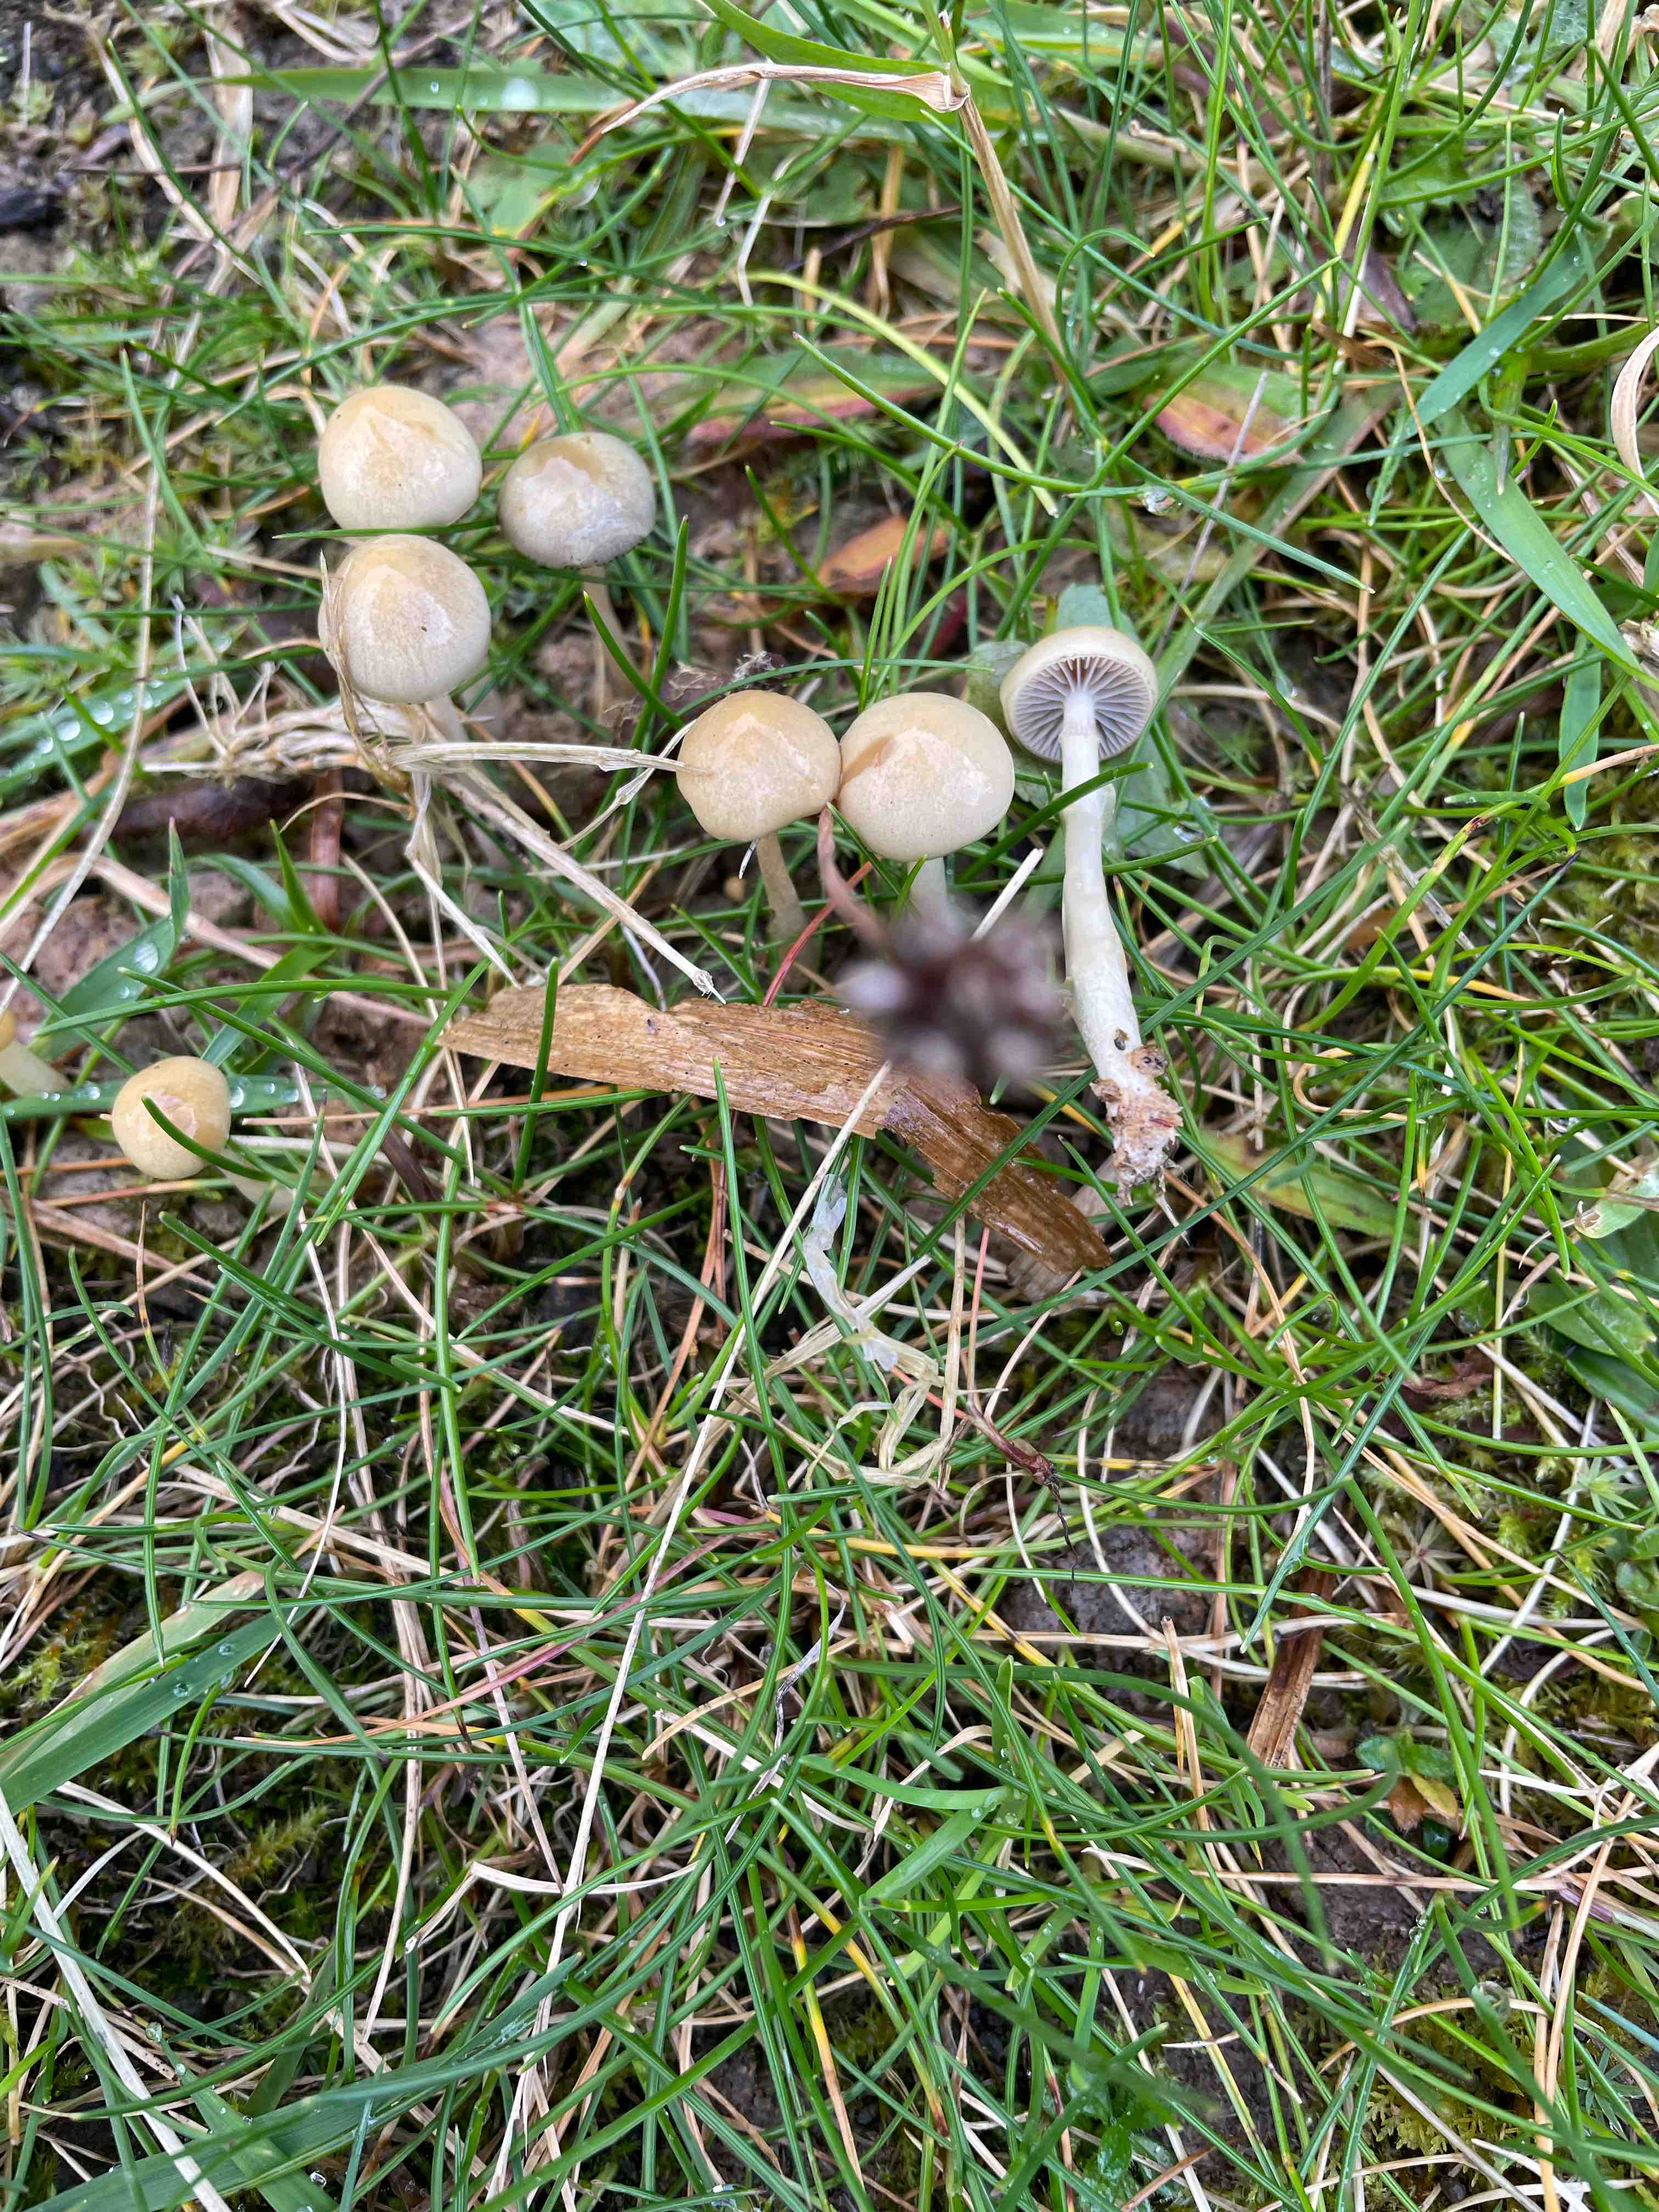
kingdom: Fungi
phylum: Basidiomycota
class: Agaricomycetes
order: Agaricales
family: Strophariaceae
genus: Protostropharia
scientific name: Protostropharia
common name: bredblad
